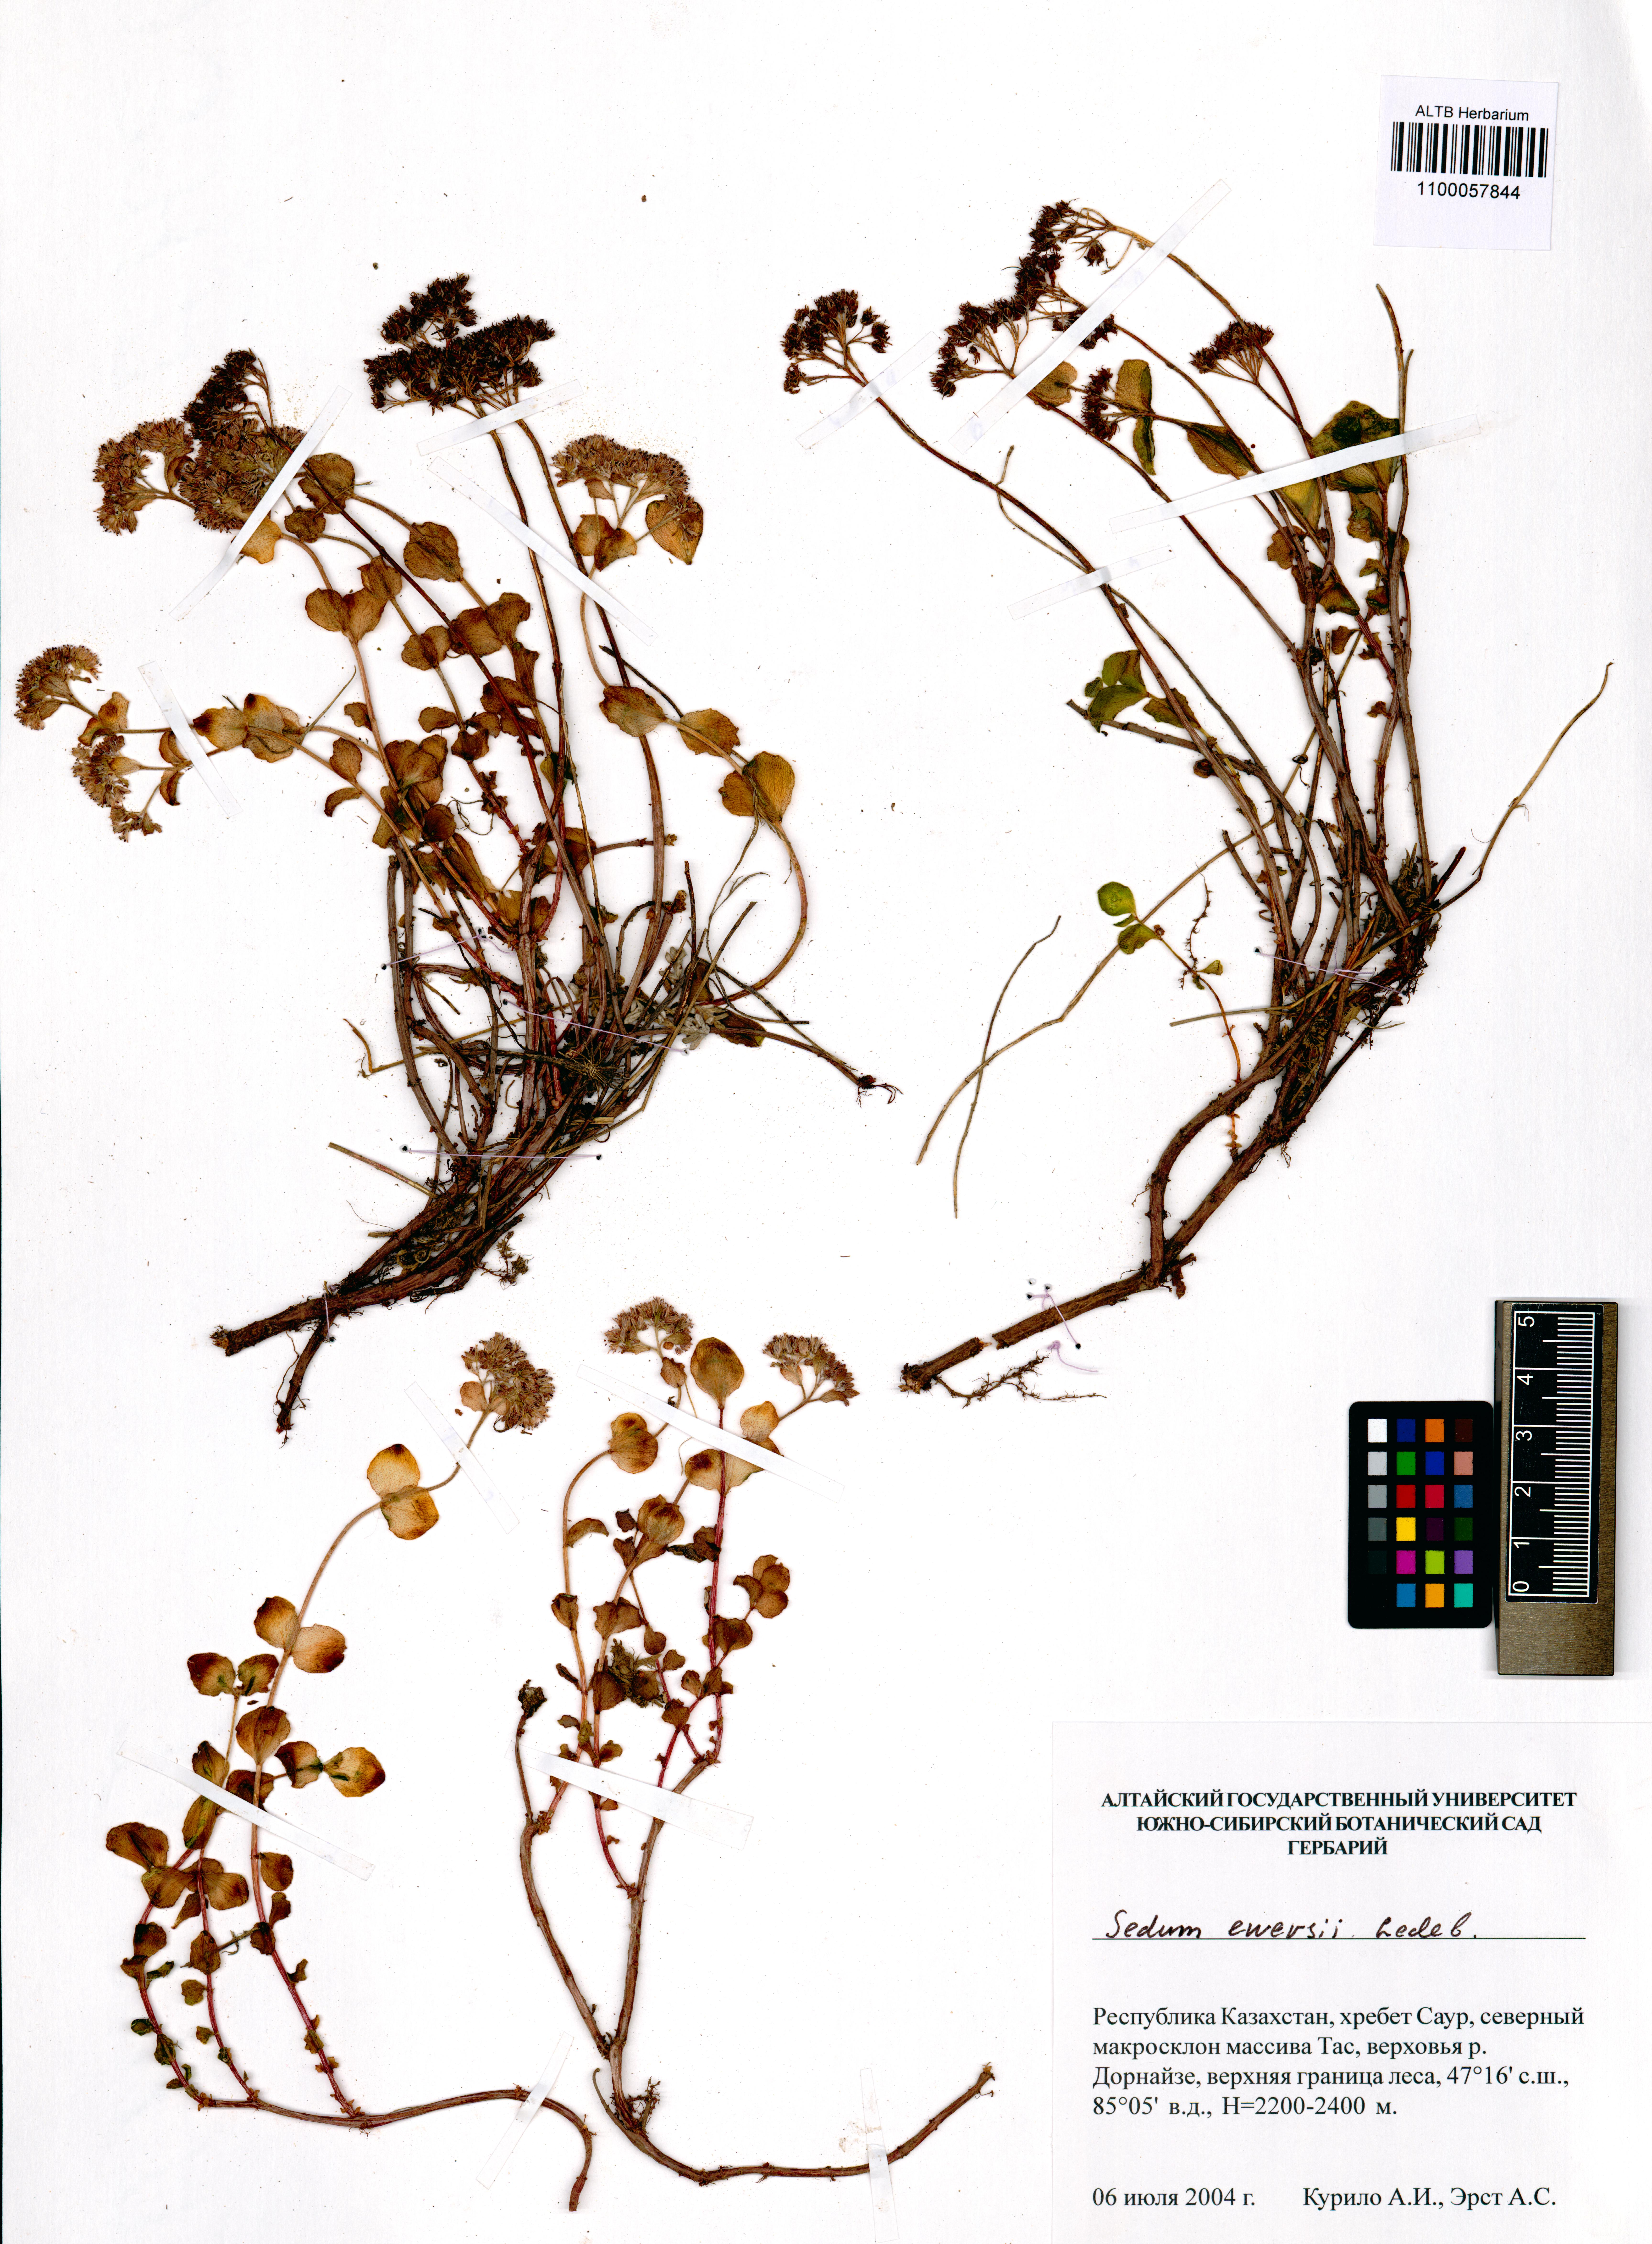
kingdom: Plantae
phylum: Tracheophyta
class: Magnoliopsida
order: Saxifragales
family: Crassulaceae
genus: Hylotelephium
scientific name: Hylotelephium ewersii
